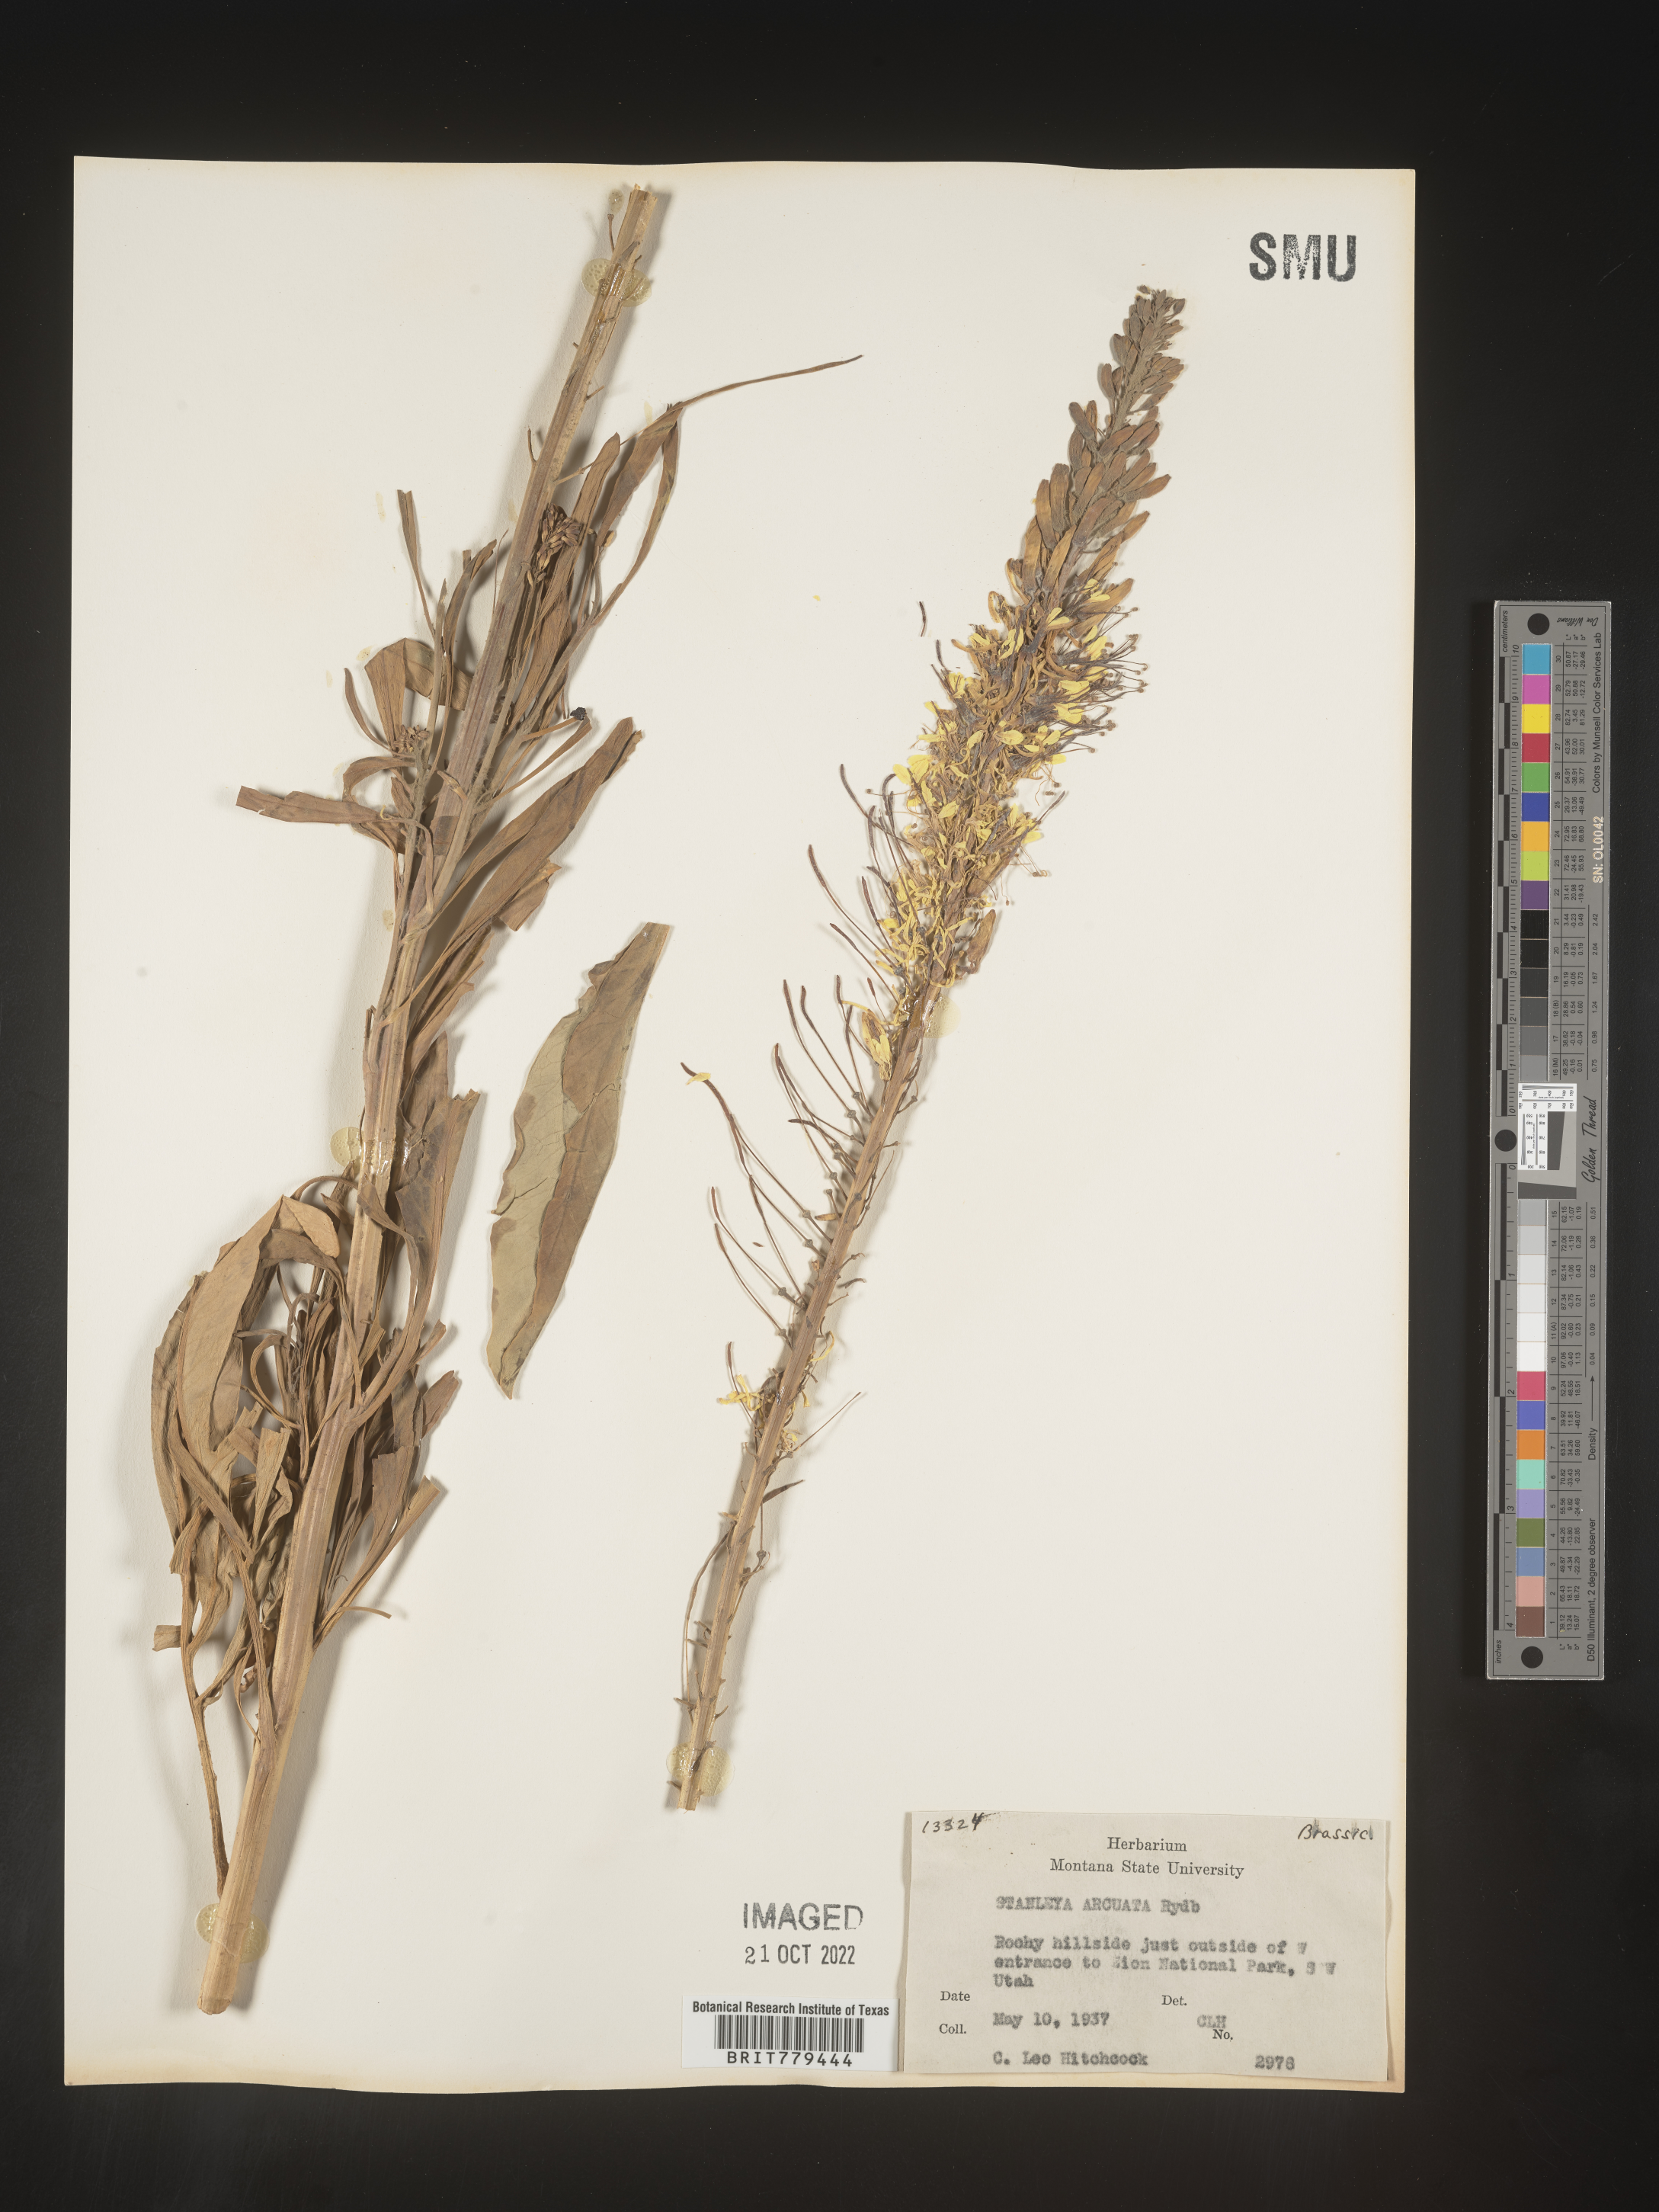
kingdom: Plantae
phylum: Tracheophyta
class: Magnoliopsida
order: Brassicales
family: Brassicaceae
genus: Stanleya
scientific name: Stanleya
